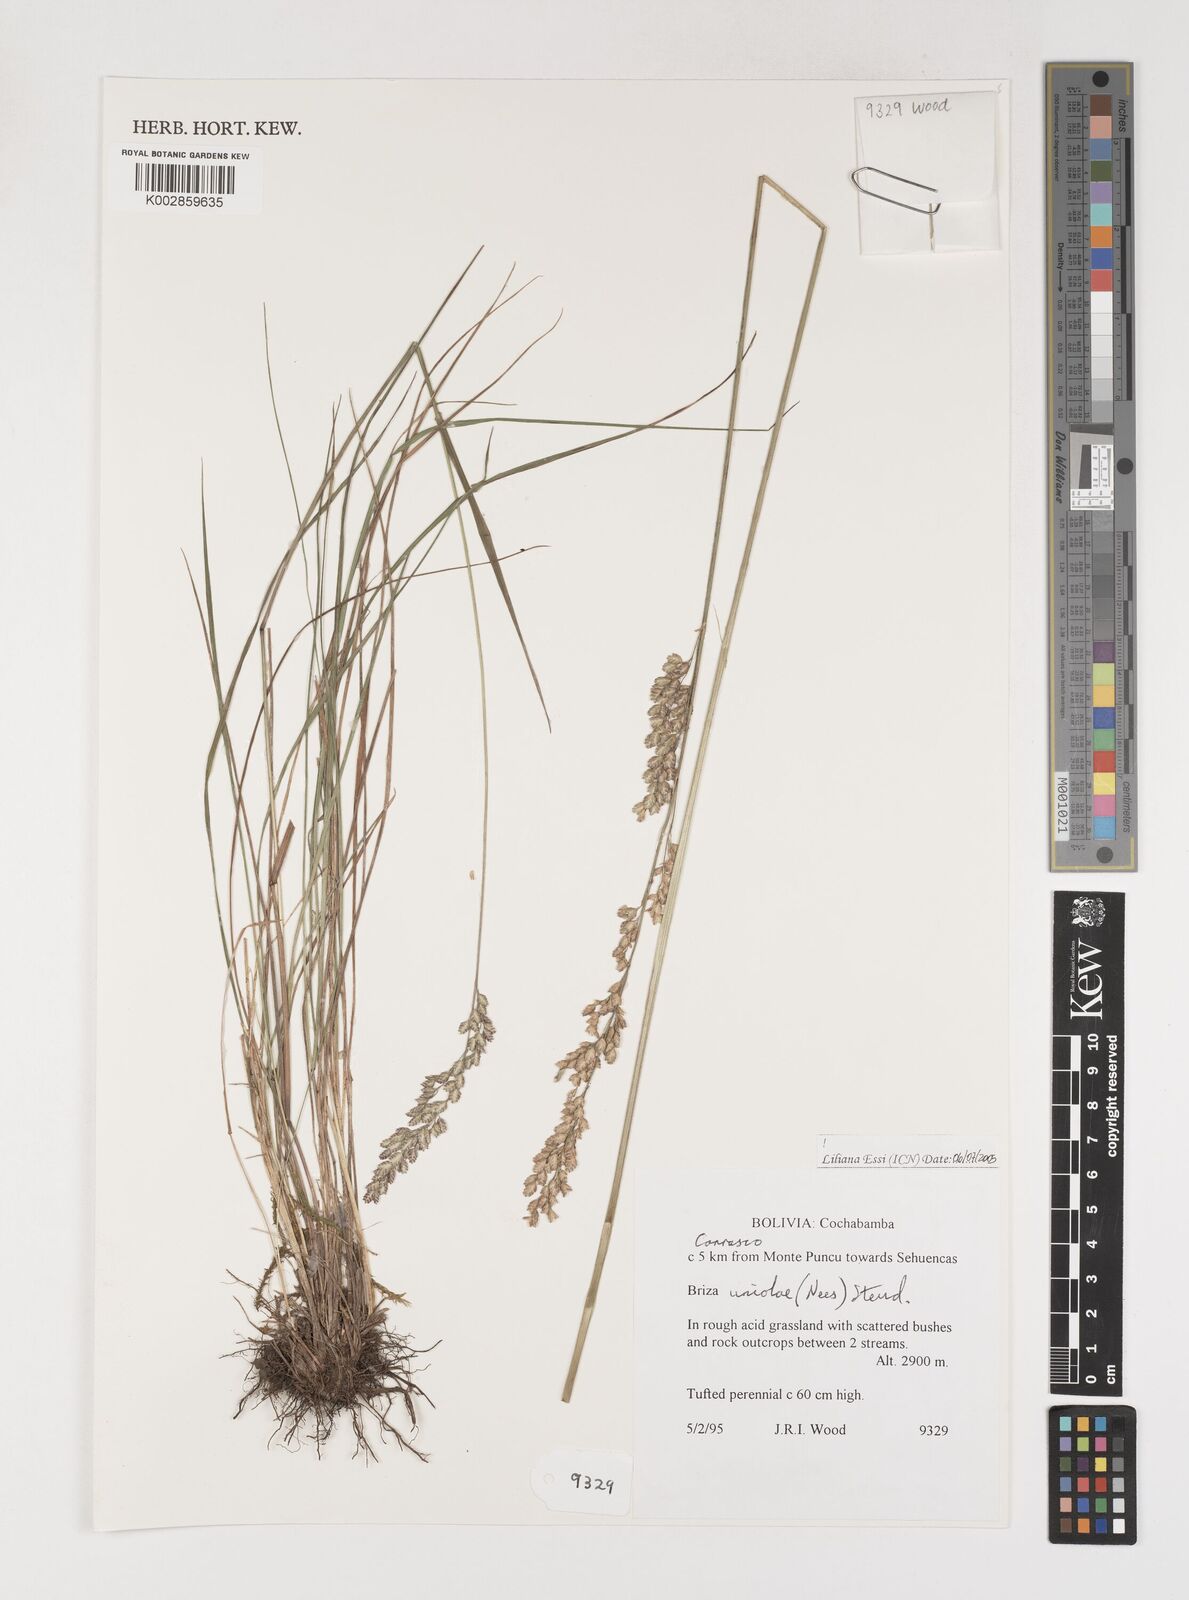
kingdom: Plantae
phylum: Tracheophyta
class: Liliopsida
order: Poales
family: Poaceae
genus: Poidium
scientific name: Poidium uniolae
